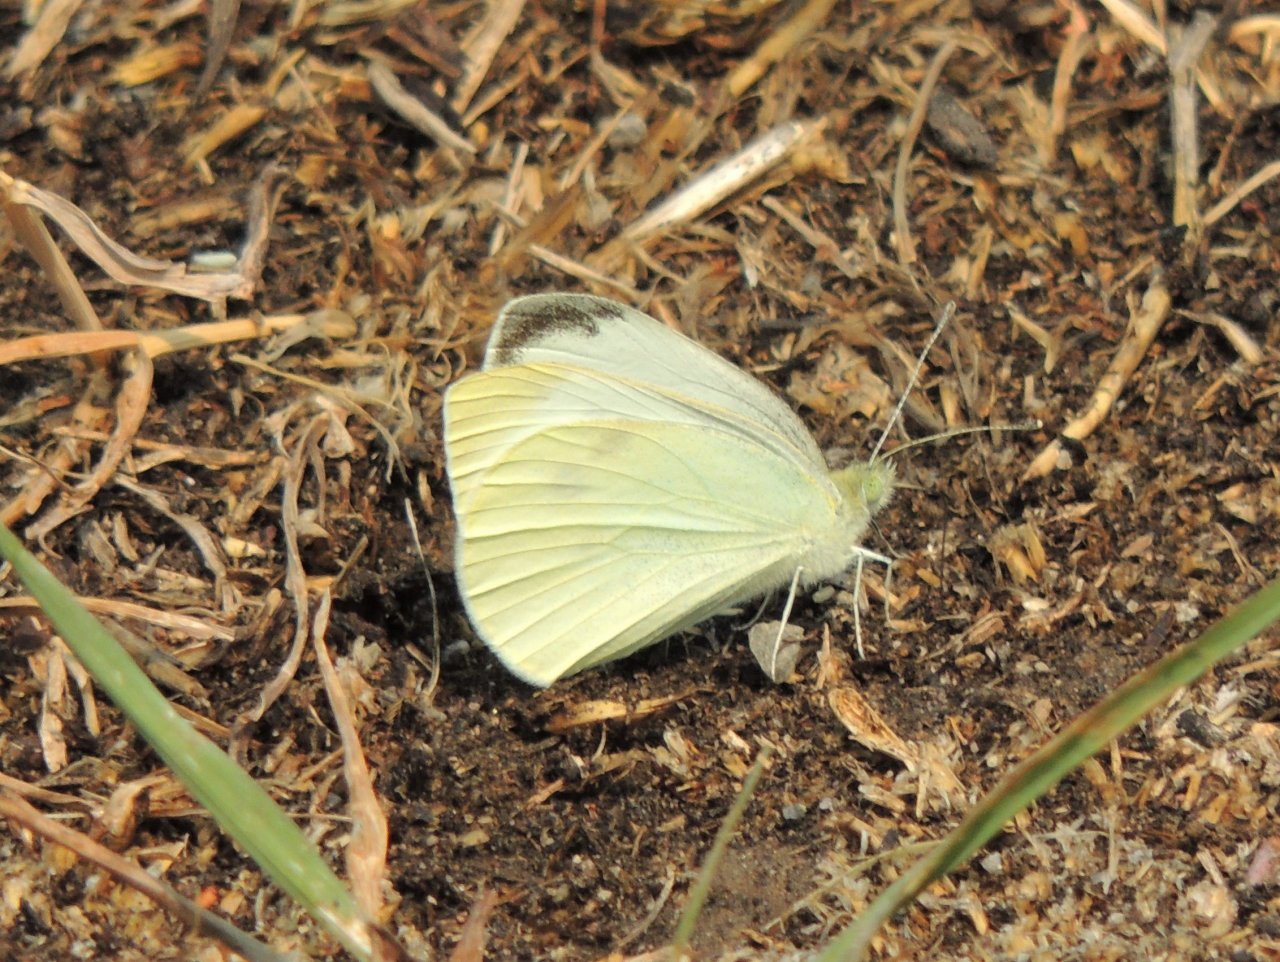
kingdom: Animalia
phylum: Arthropoda
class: Insecta
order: Lepidoptera
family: Pieridae
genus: Pieris
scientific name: Pieris rapae
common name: Cabbage White
